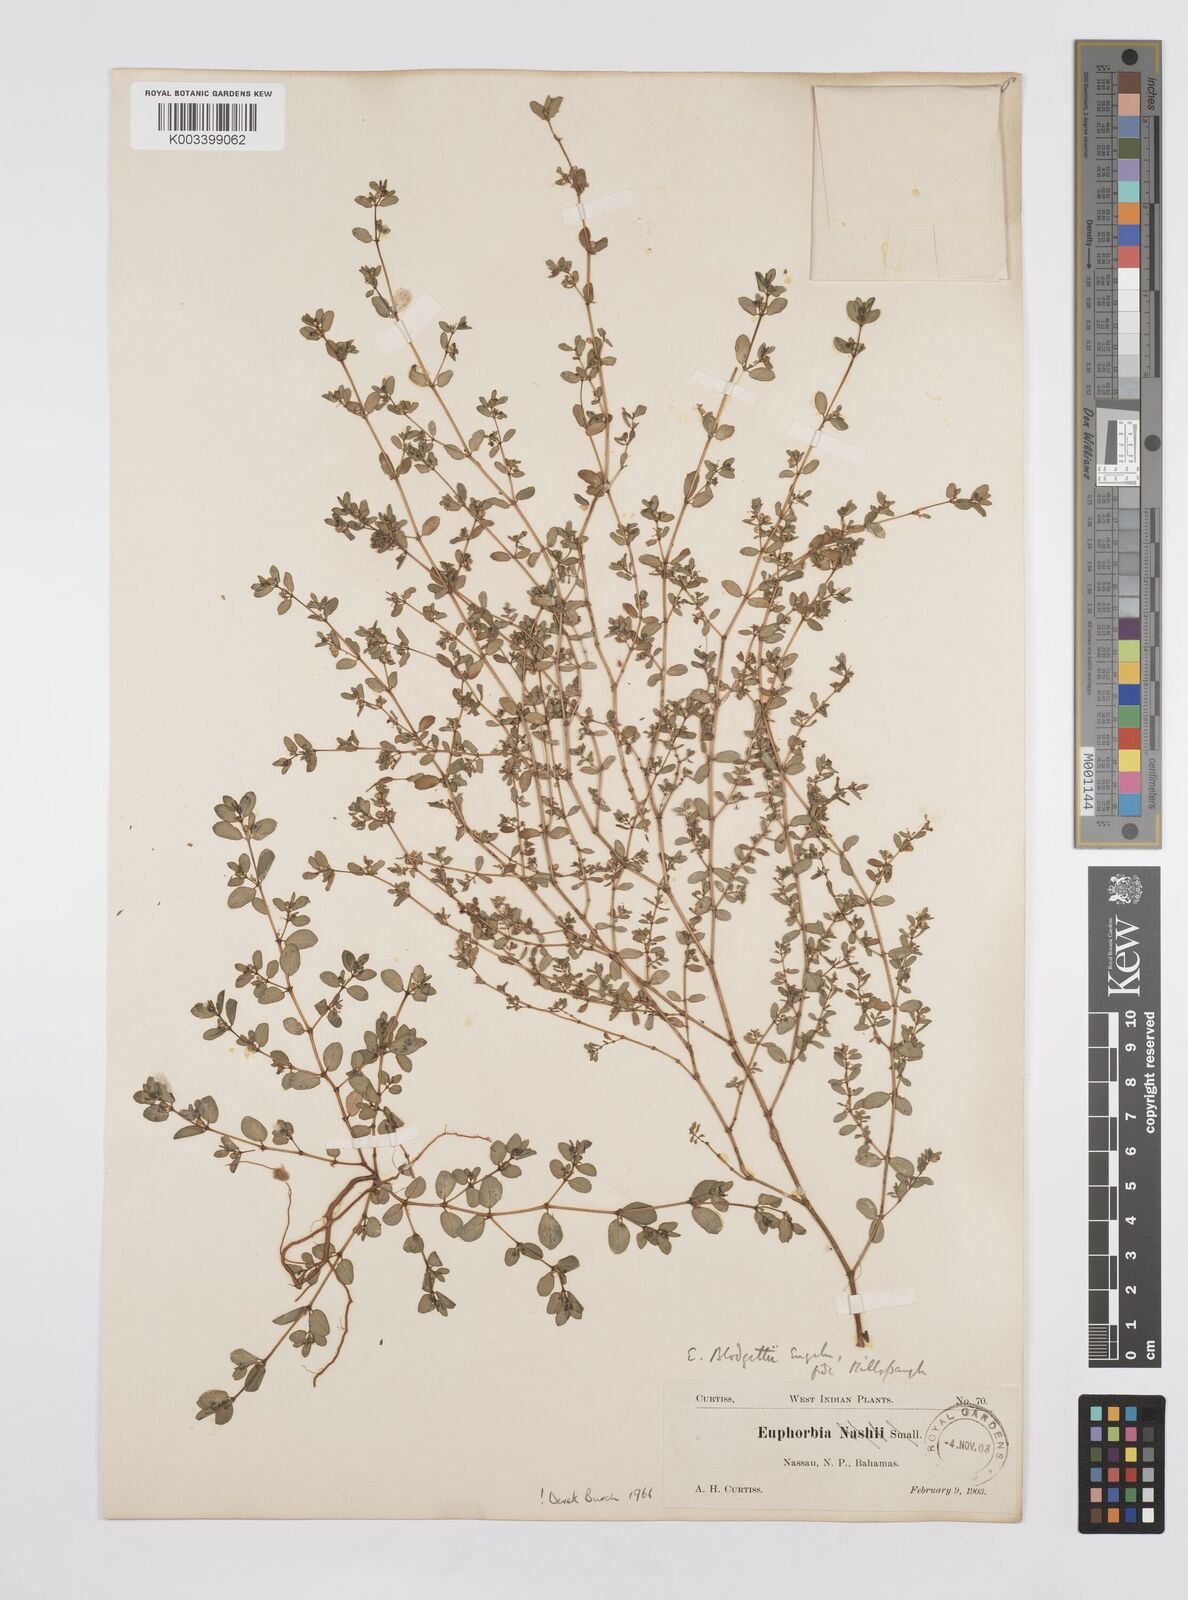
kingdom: Plantae
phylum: Tracheophyta
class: Magnoliopsida
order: Malpighiales
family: Euphorbiaceae
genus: Euphorbia
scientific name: Euphorbia blodgettii
